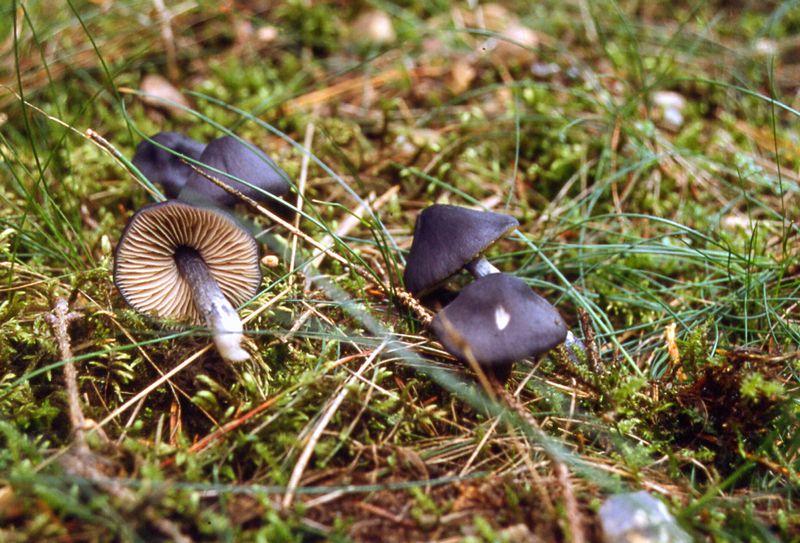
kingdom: Fungi
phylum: Basidiomycota
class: Agaricomycetes
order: Agaricales
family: Entolomataceae
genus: Entocybe
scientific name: Entocybe nitida
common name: stålblå rødblad
